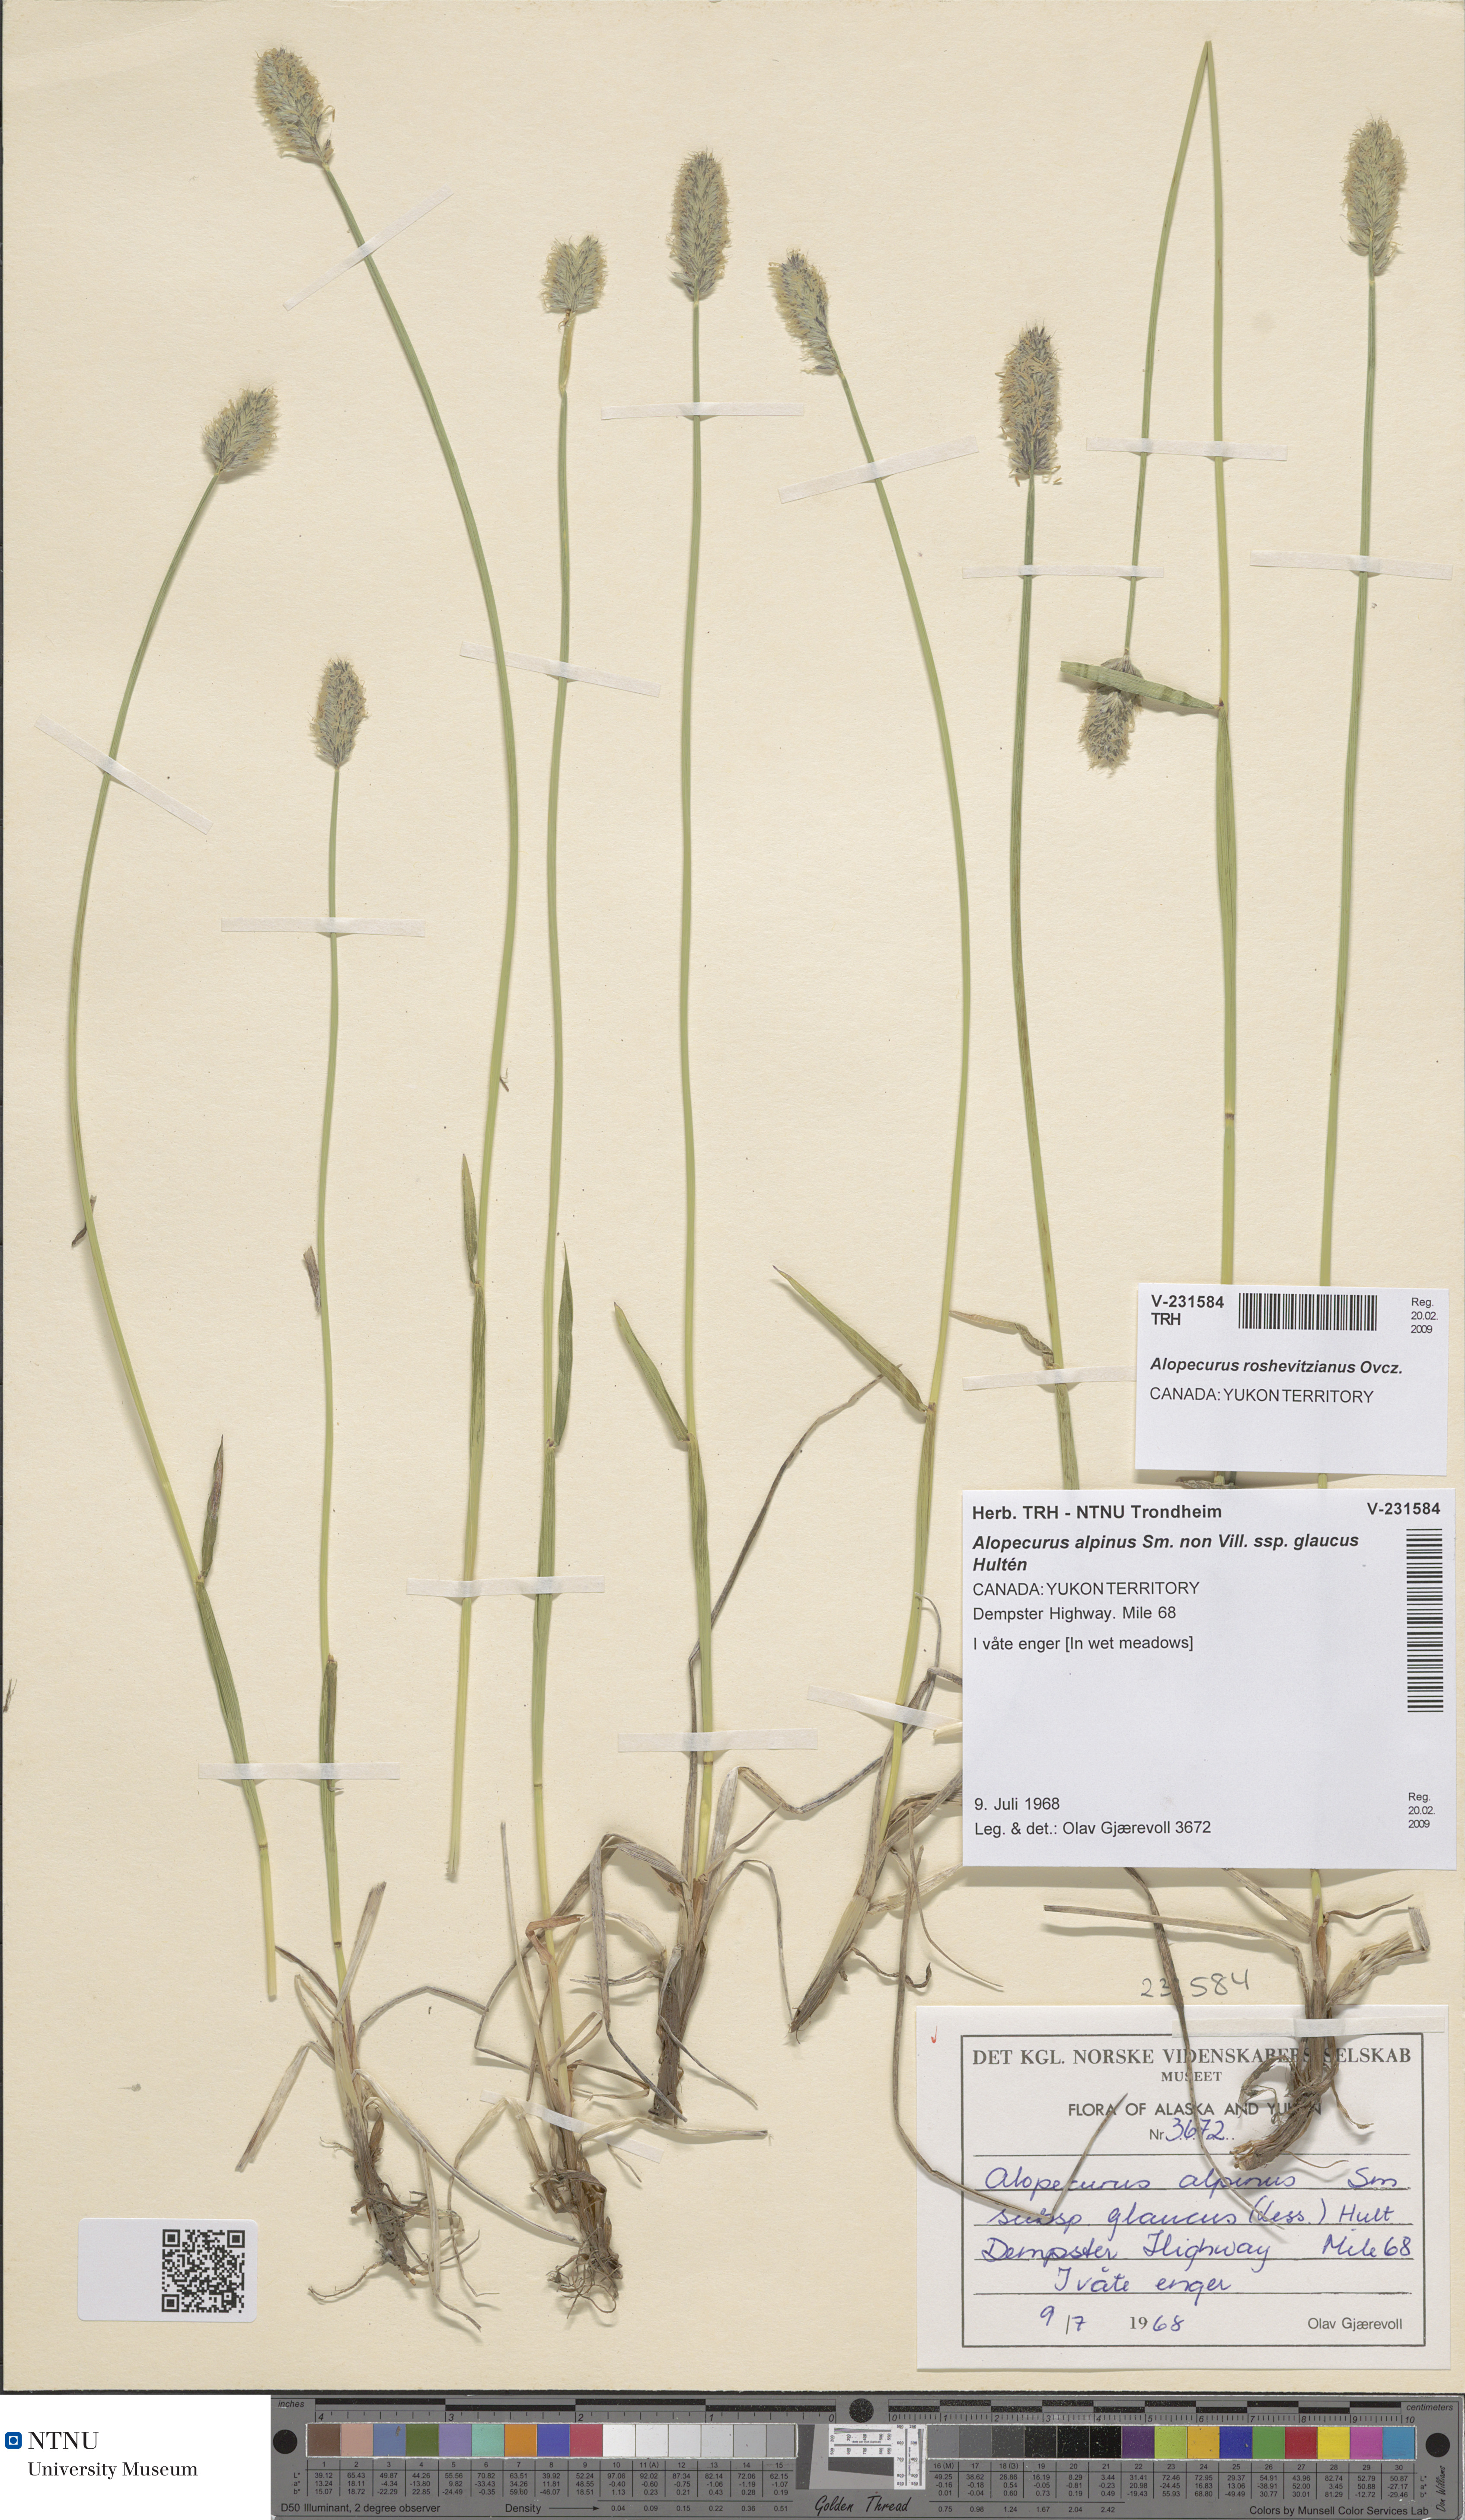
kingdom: Plantae
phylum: Tracheophyta
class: Liliopsida
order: Poales
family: Poaceae
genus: Alopecurus
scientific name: Alopecurus magellanicus
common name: Alpine foxtail
